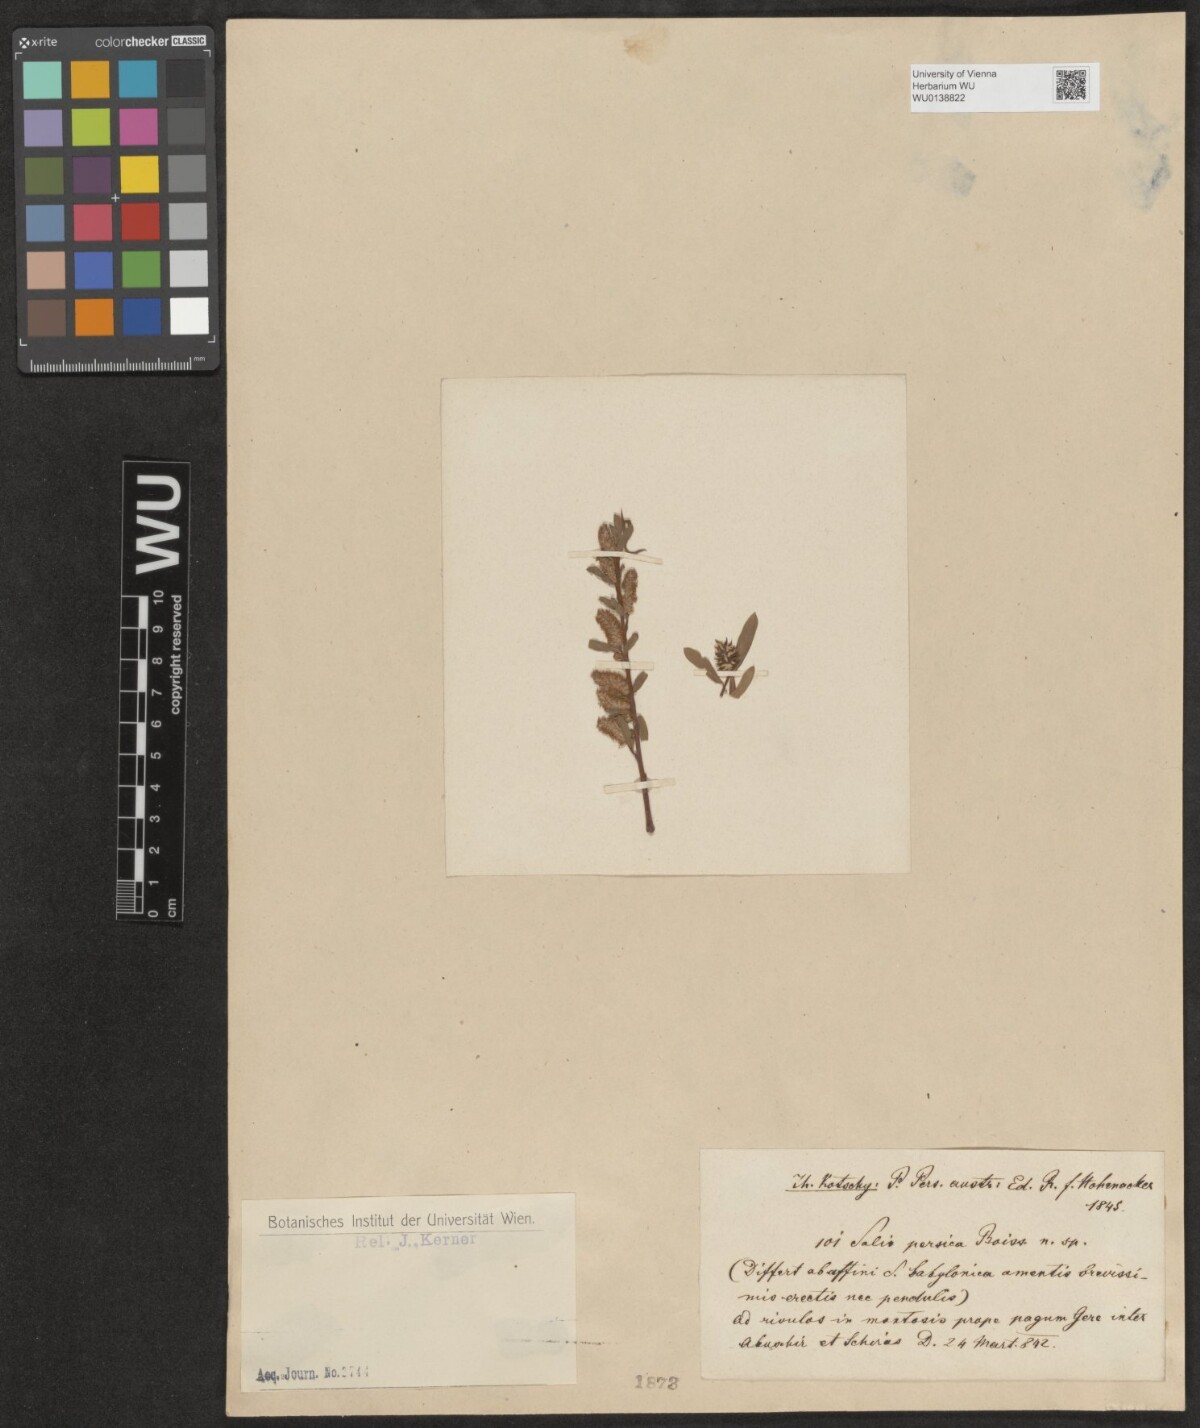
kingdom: Plantae
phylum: Tracheophyta
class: Magnoliopsida
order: Malpighiales
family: Salicaceae
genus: Salix
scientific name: Salix acmophylla
